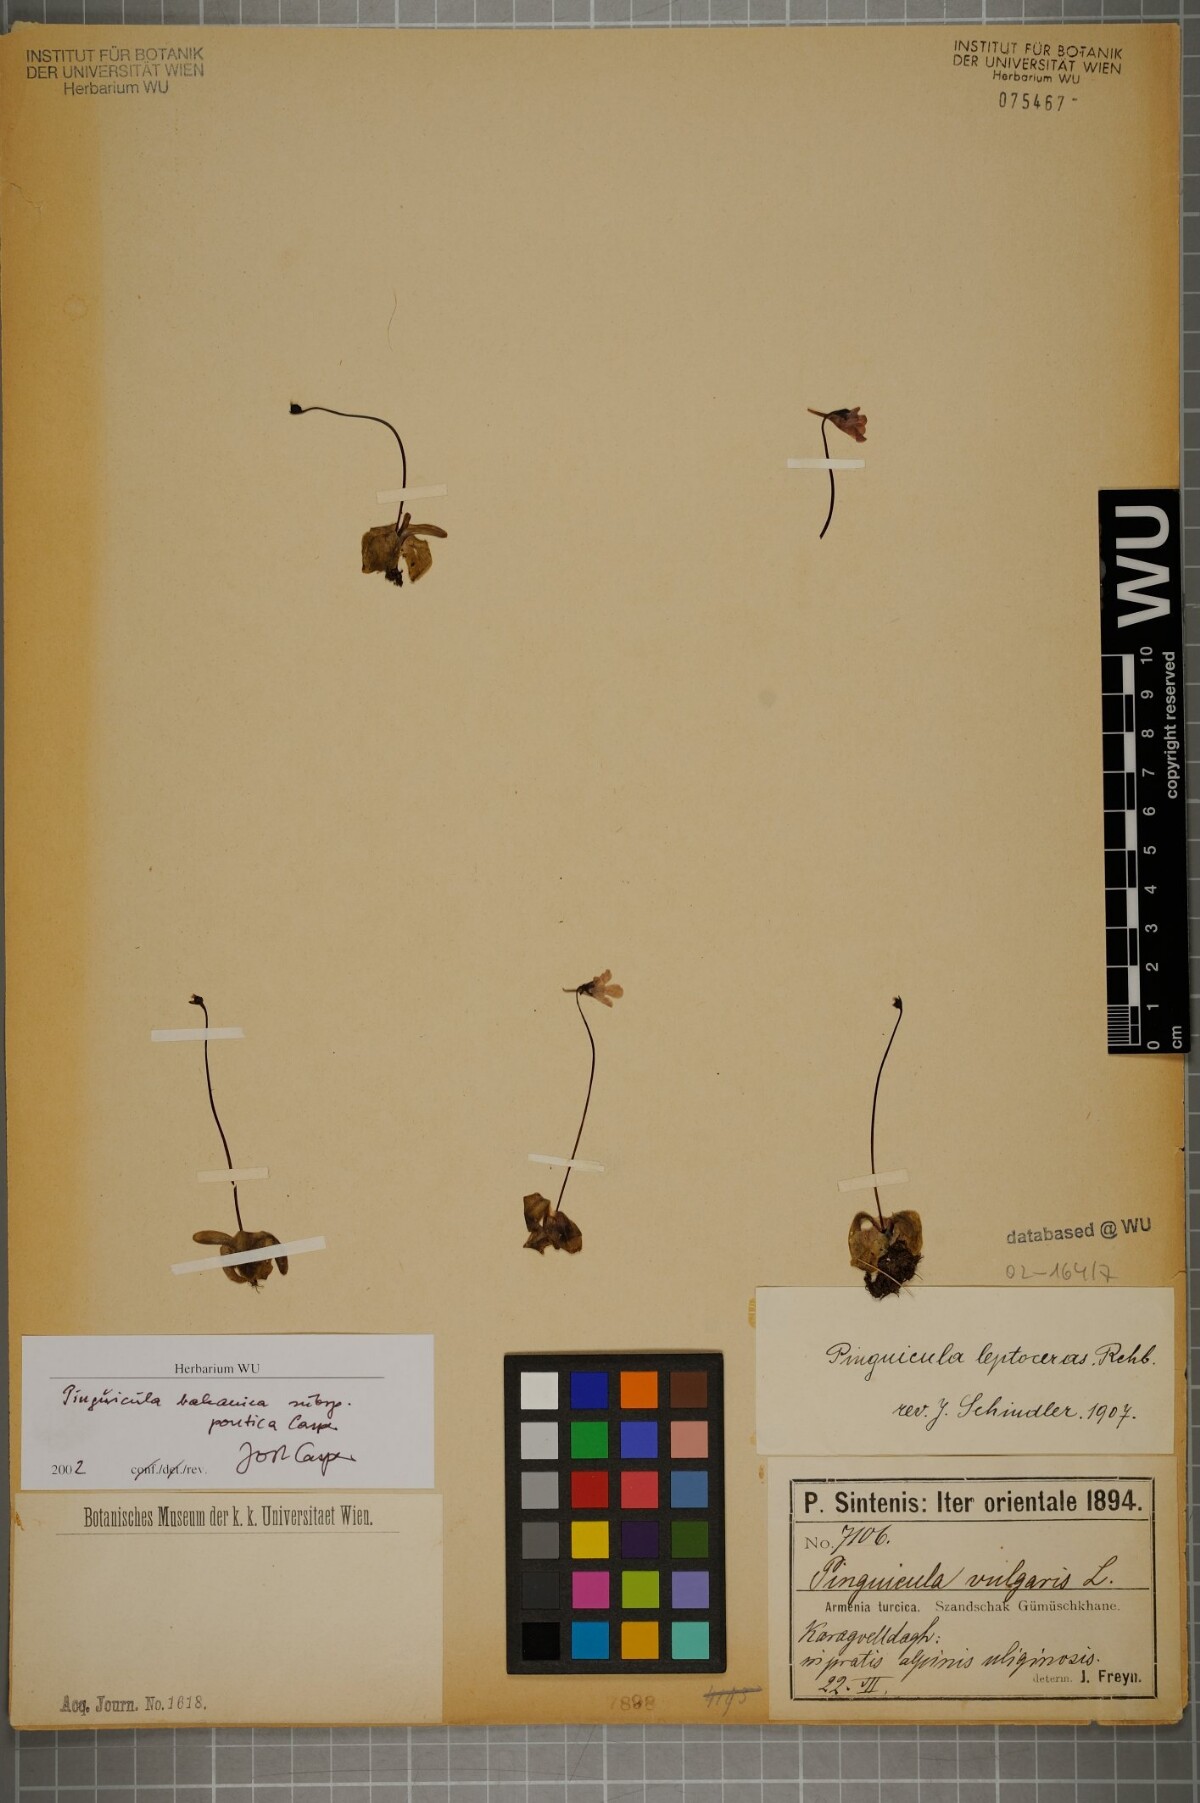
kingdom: Plantae
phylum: Tracheophyta
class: Magnoliopsida
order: Lamiales
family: Lentibulariaceae
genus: Pinguicula
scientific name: Pinguicula balcanica
